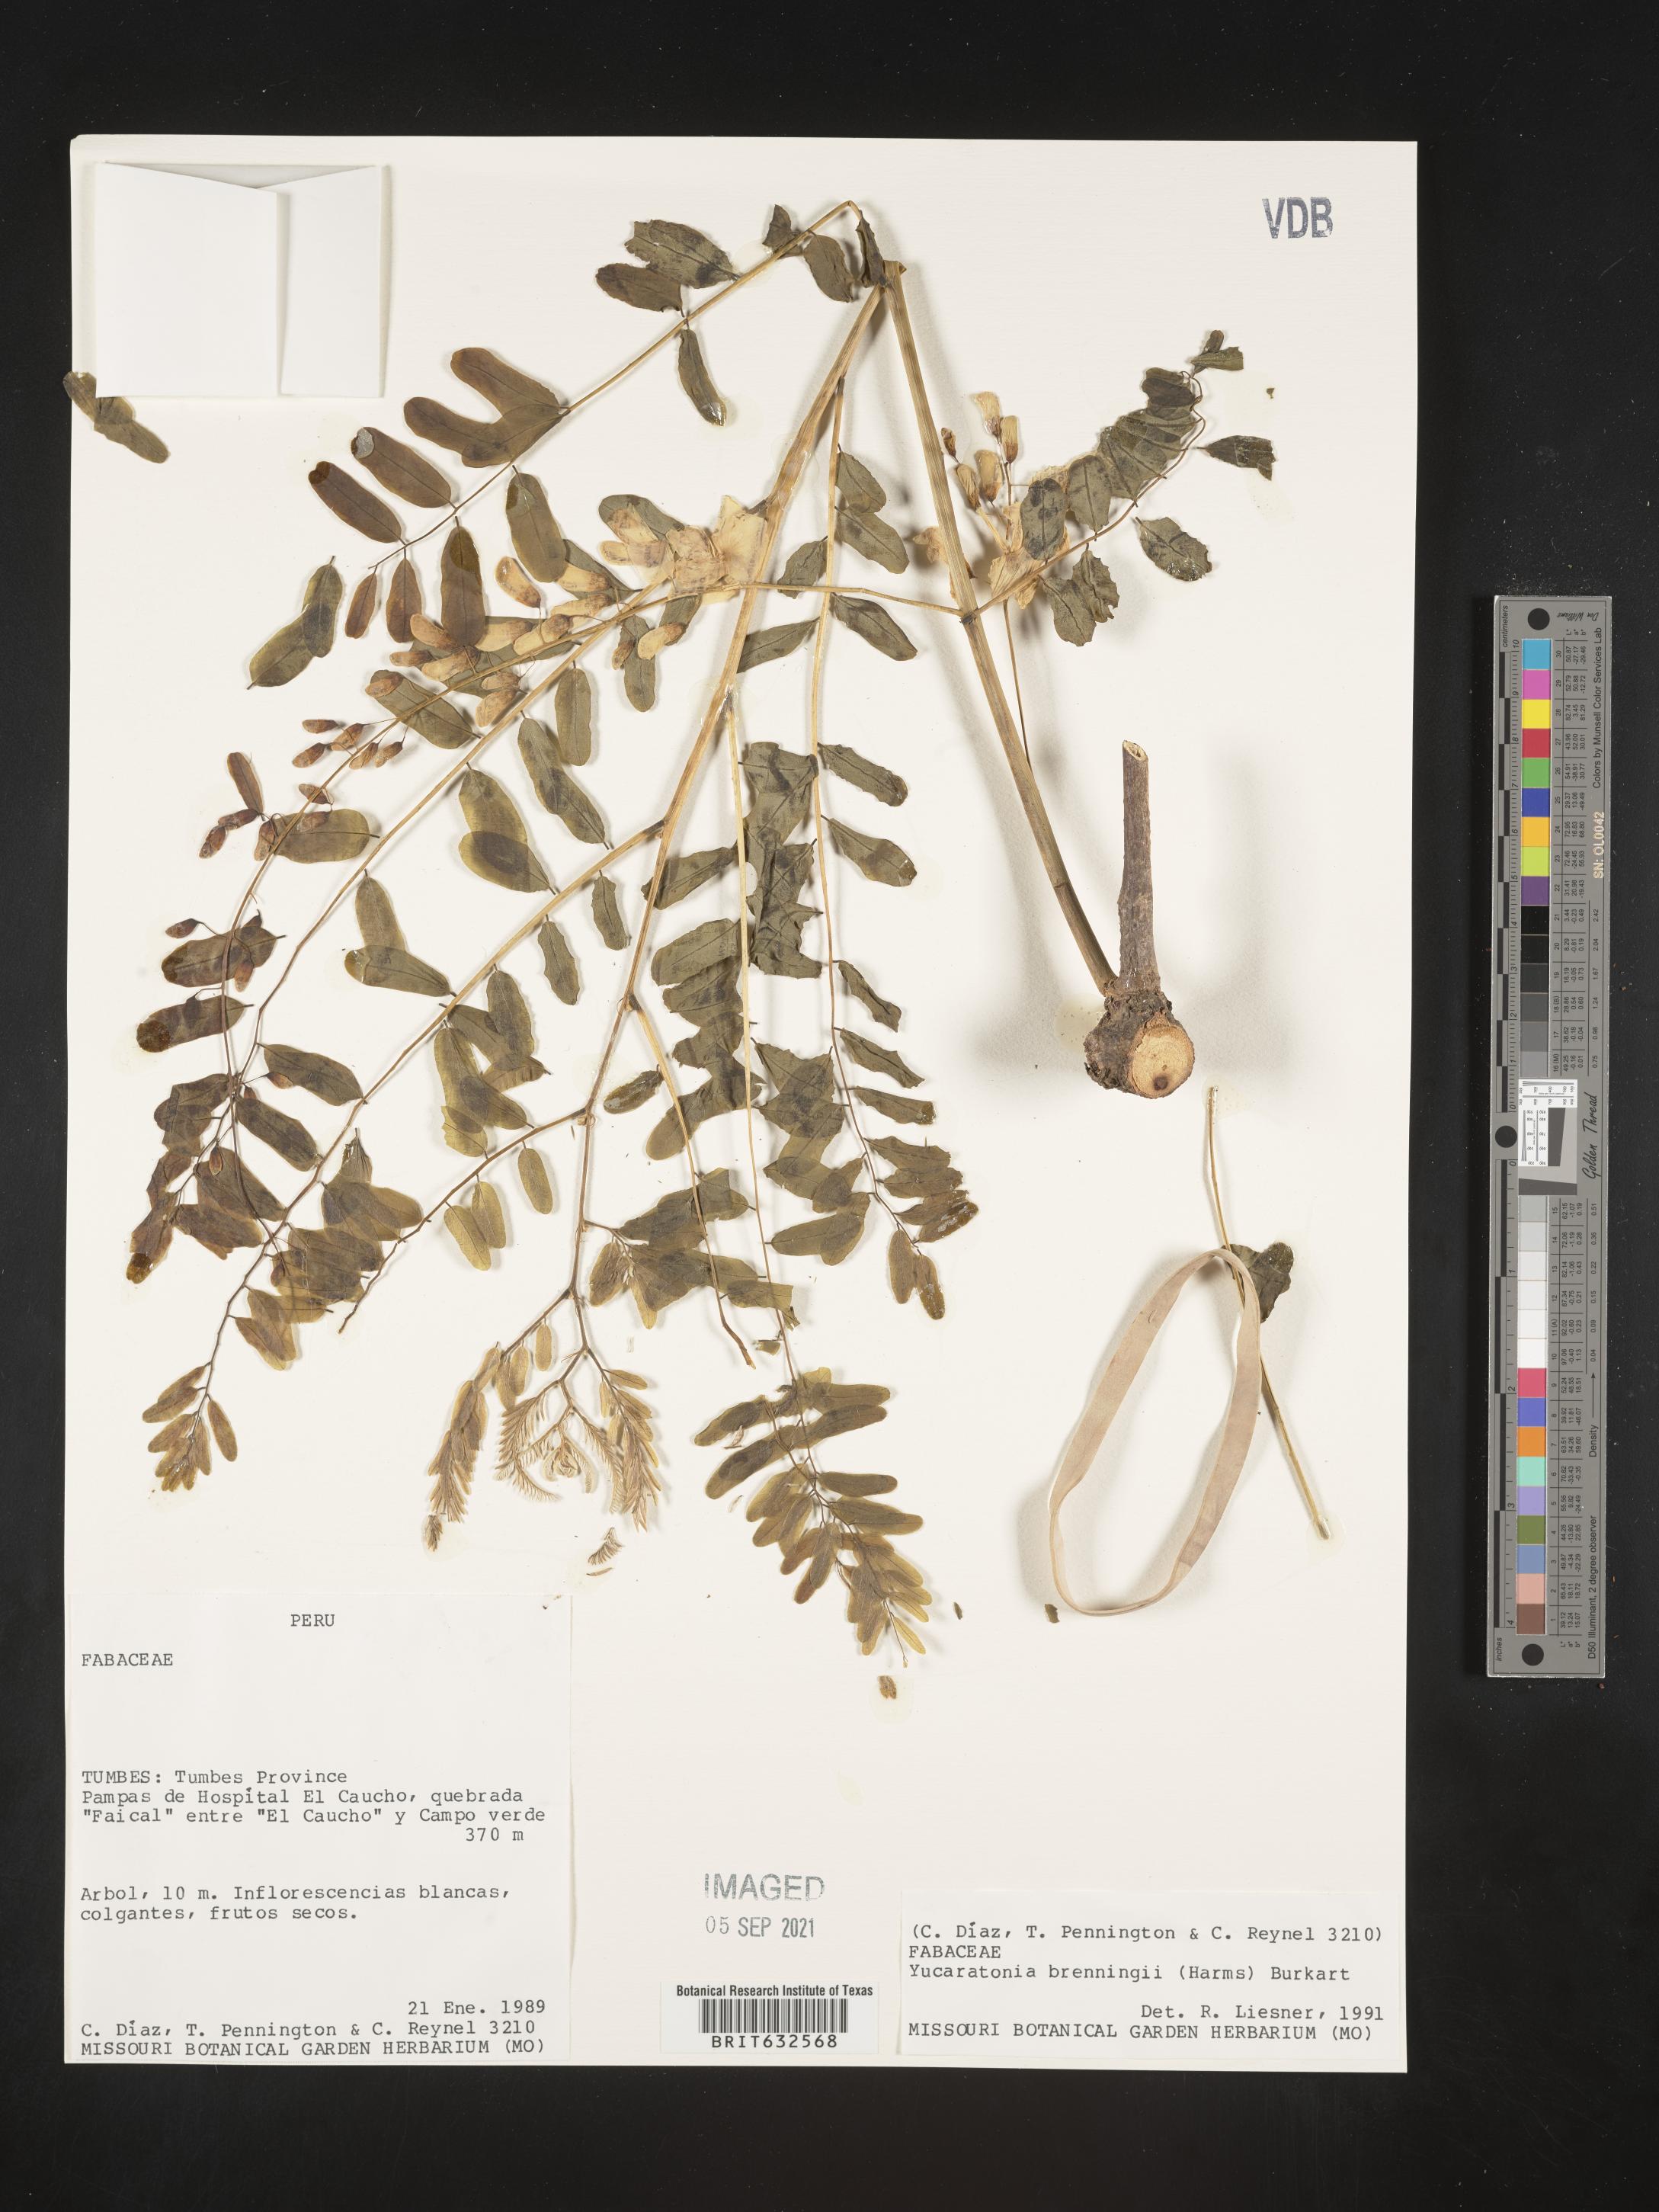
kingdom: Plantae
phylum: Tracheophyta
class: Magnoliopsida
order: Fabales
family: Fabaceae
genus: Gliricidia
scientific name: Gliricidia brenningii
